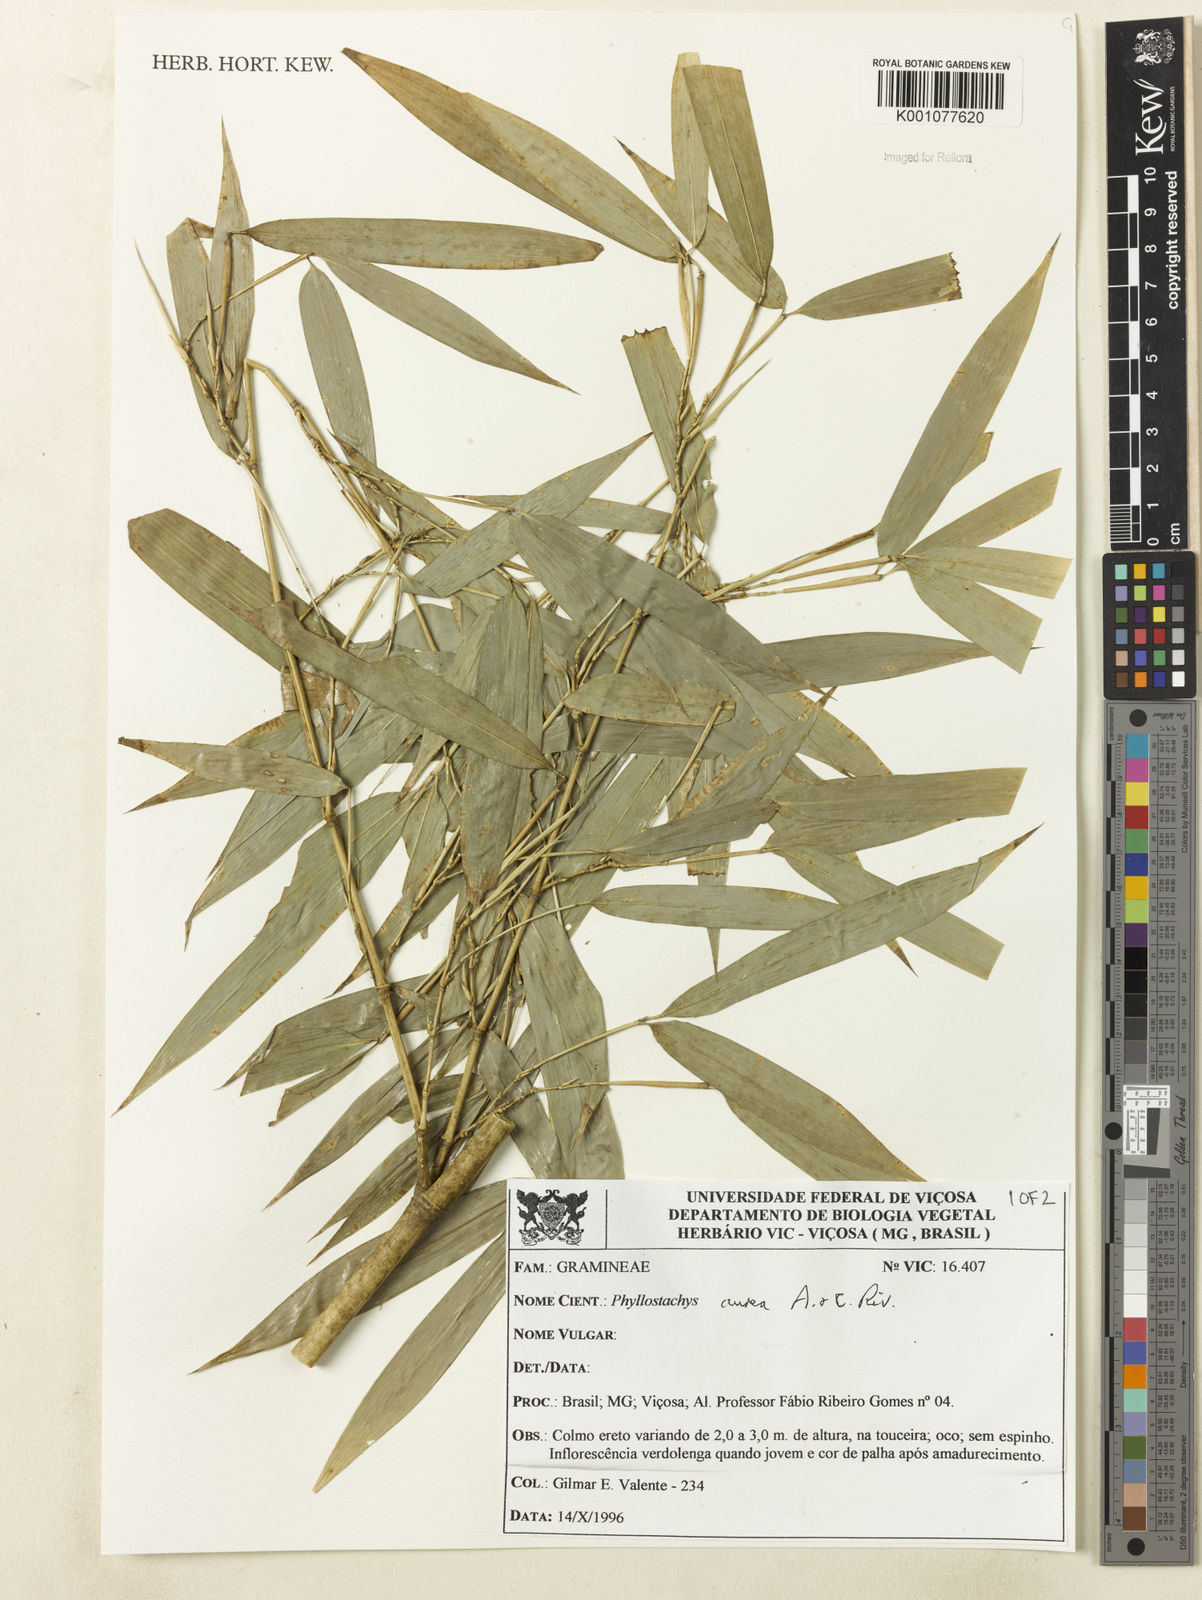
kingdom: Plantae
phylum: Tracheophyta
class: Liliopsida
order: Poales
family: Poaceae
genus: Phyllostachys
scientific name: Phyllostachys
